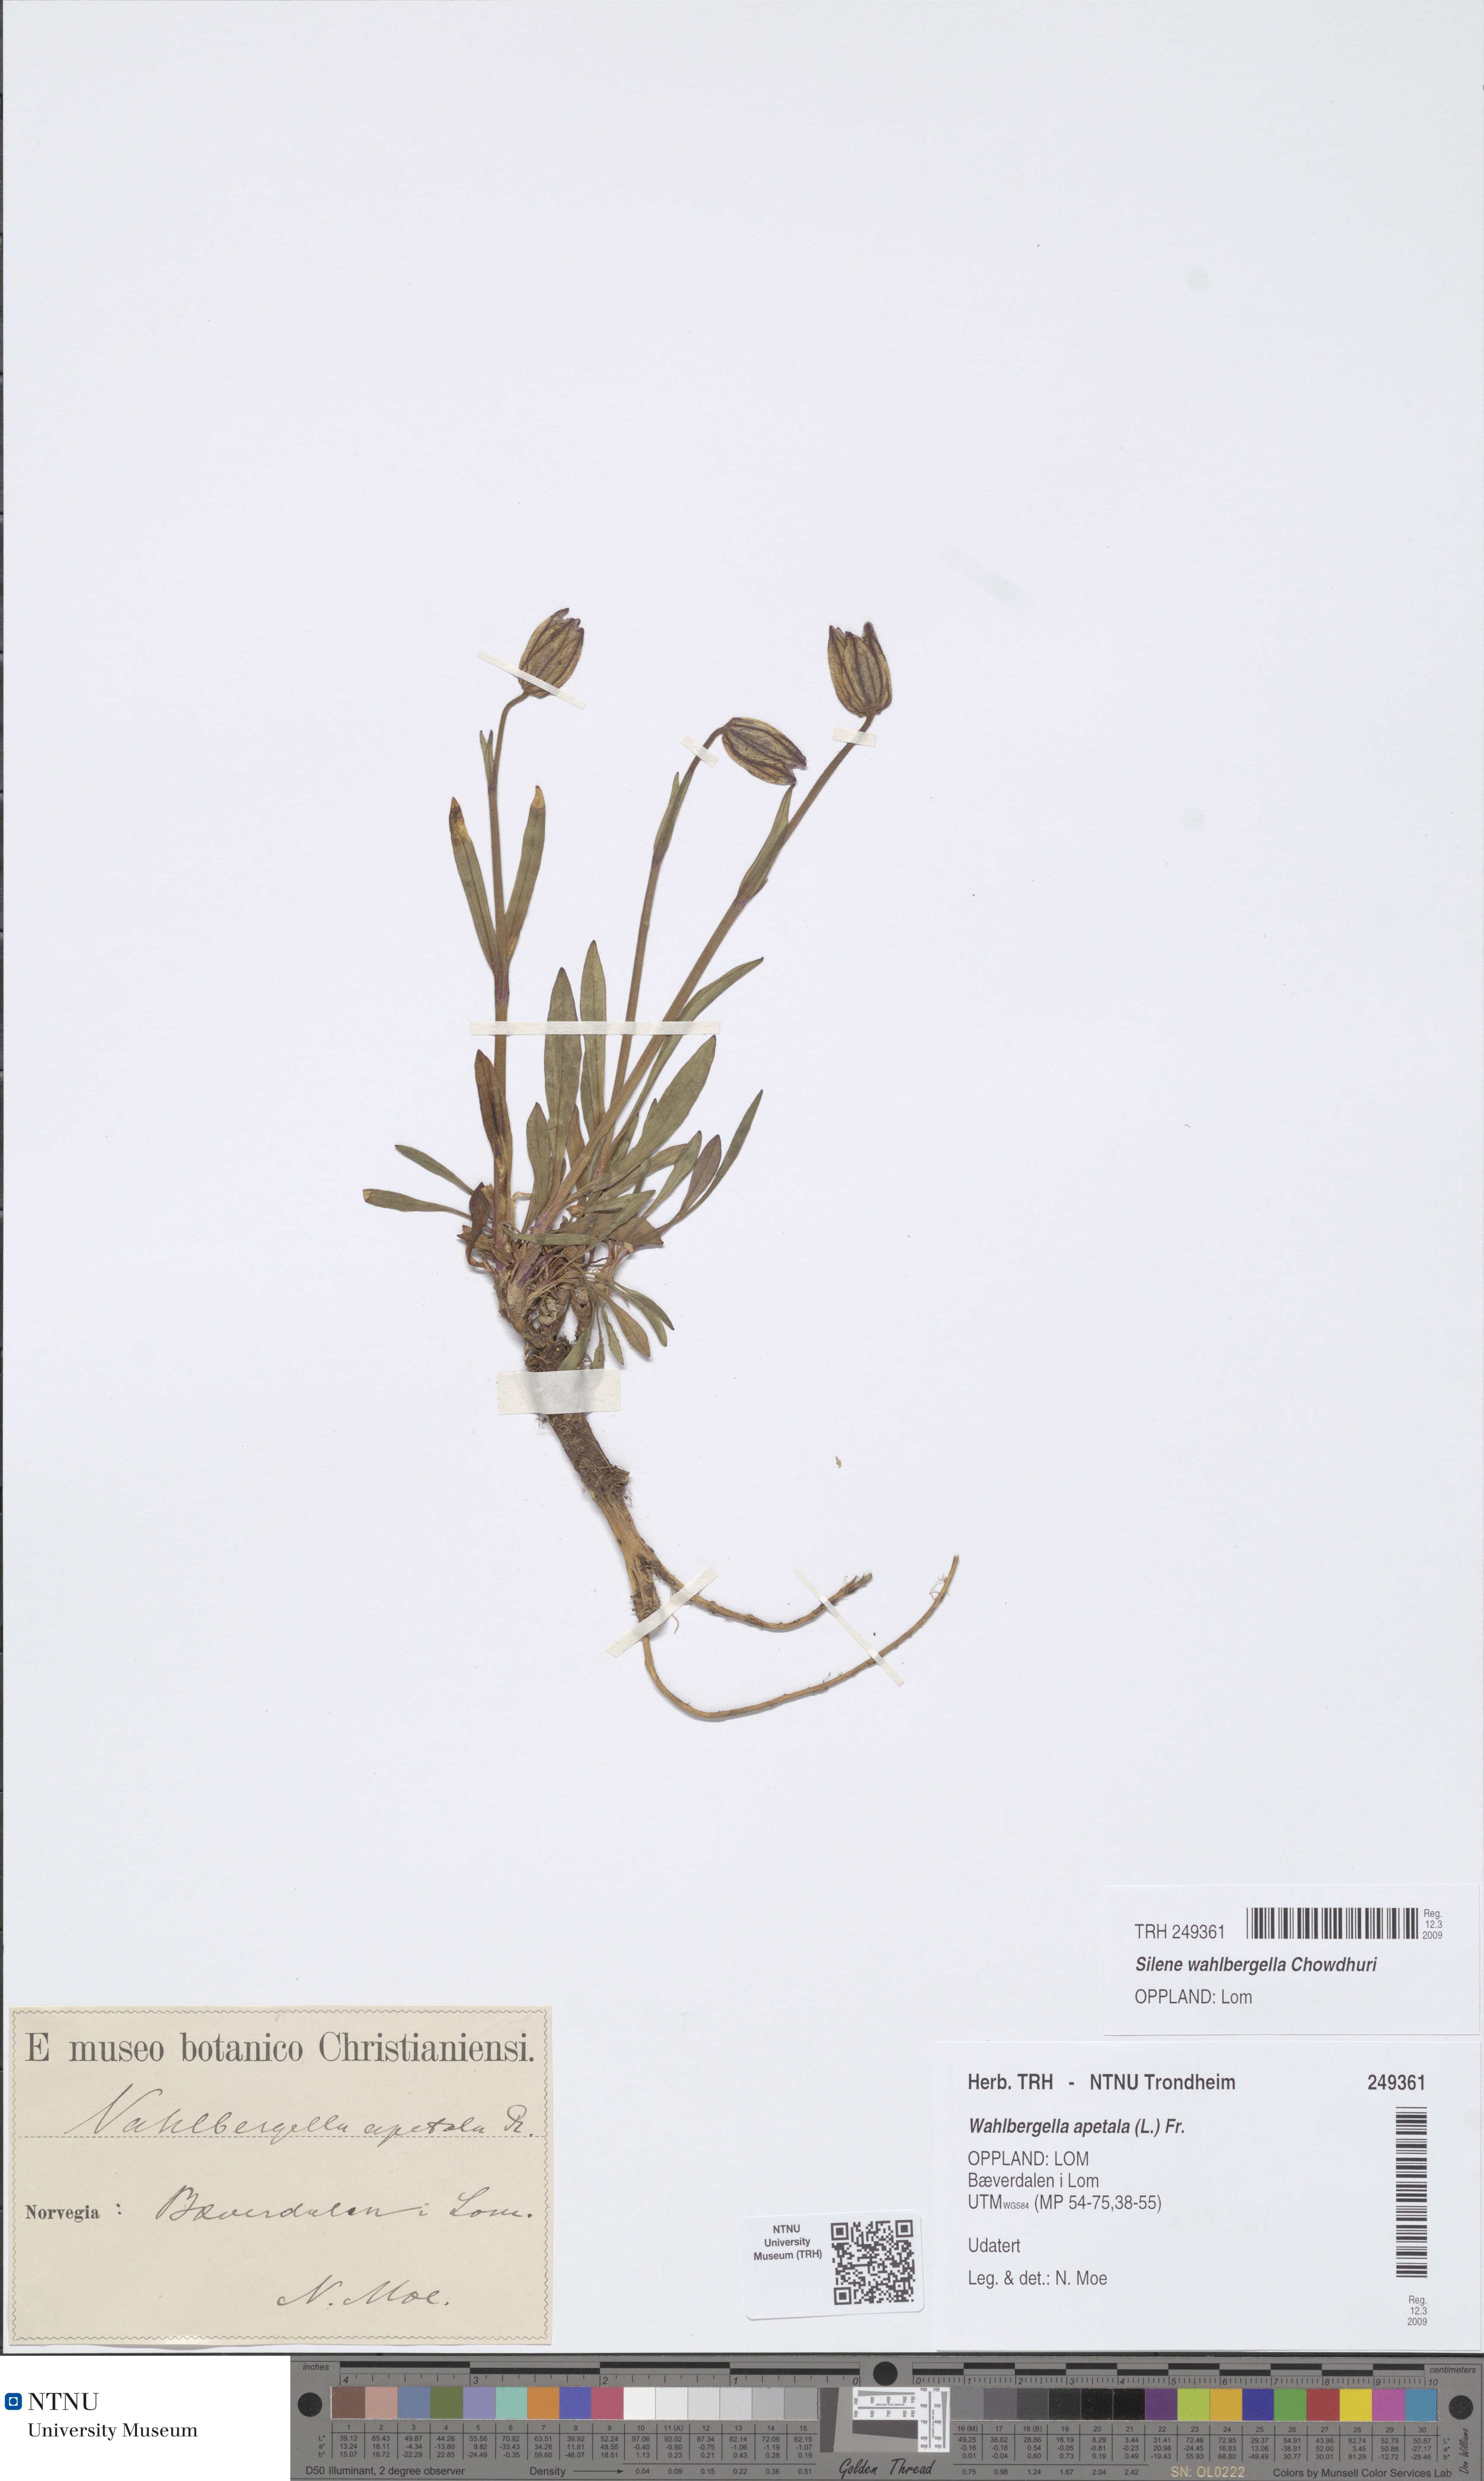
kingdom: Plantae
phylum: Tracheophyta
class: Magnoliopsida
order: Caryophyllales
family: Caryophyllaceae
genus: Silene
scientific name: Silene wahlbergella
